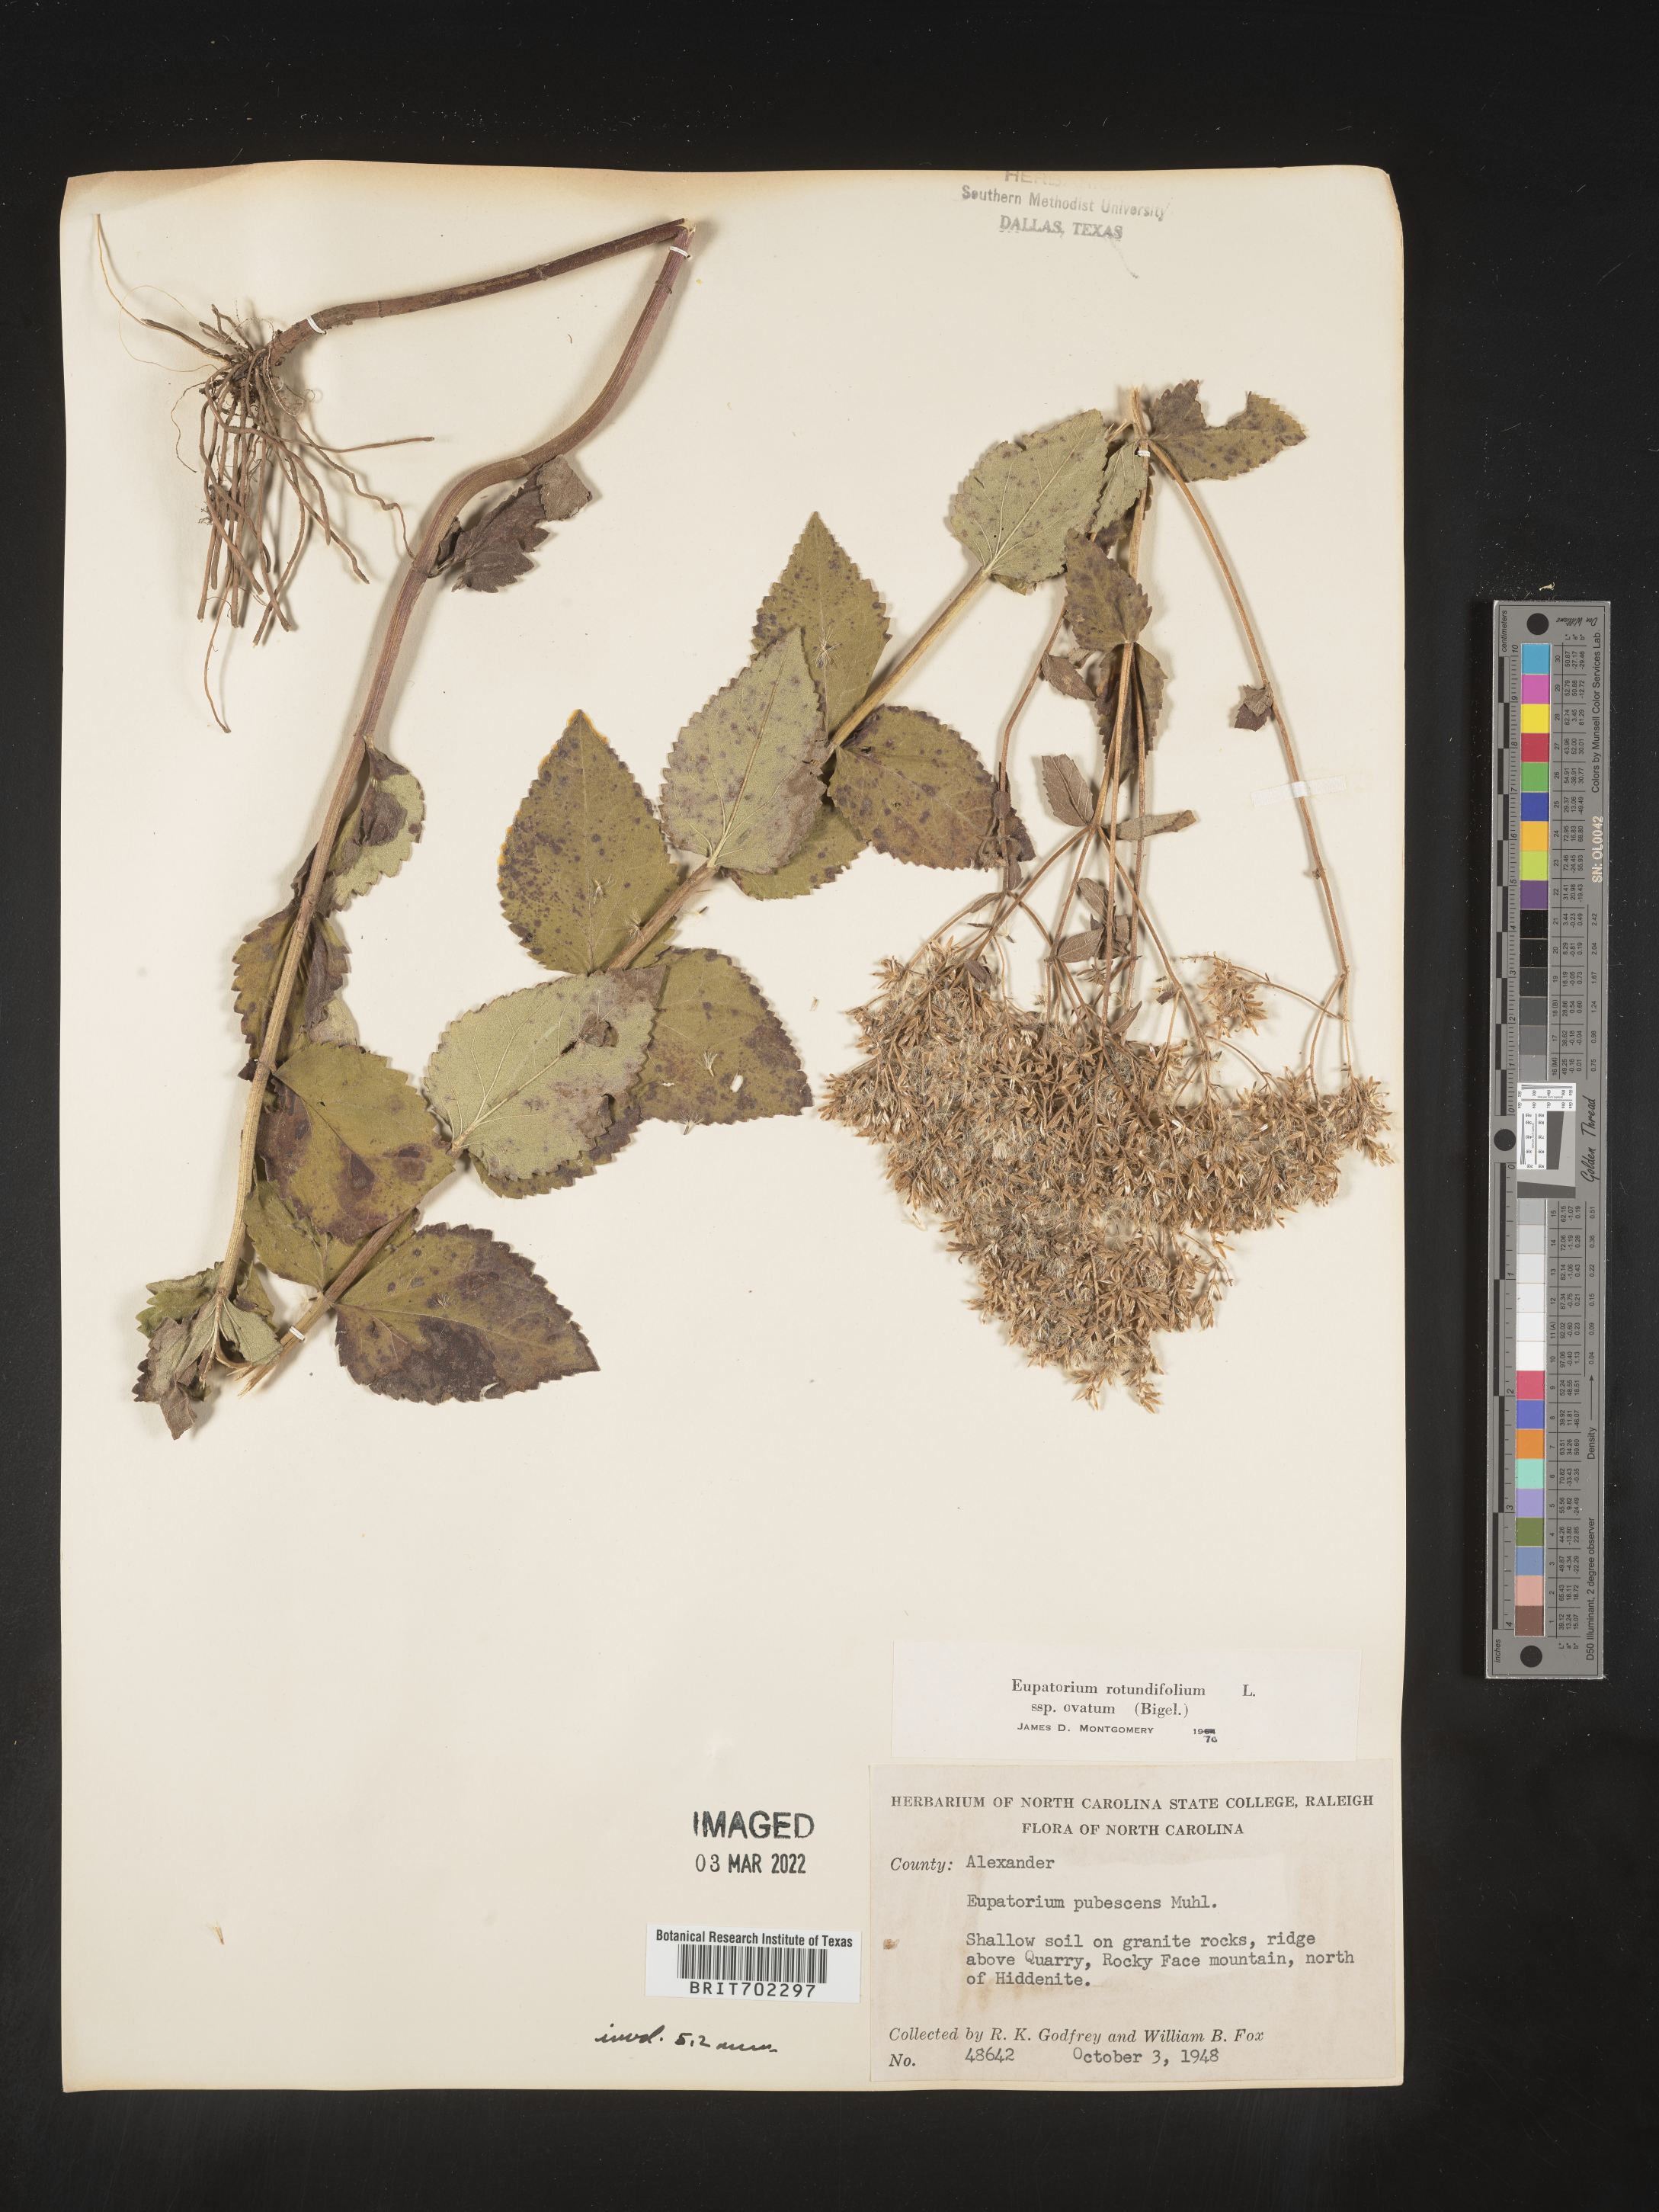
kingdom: Plantae
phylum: Tracheophyta
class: Magnoliopsida
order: Asterales
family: Asteraceae
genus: Eupatorium
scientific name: Eupatorium rotundifolium
